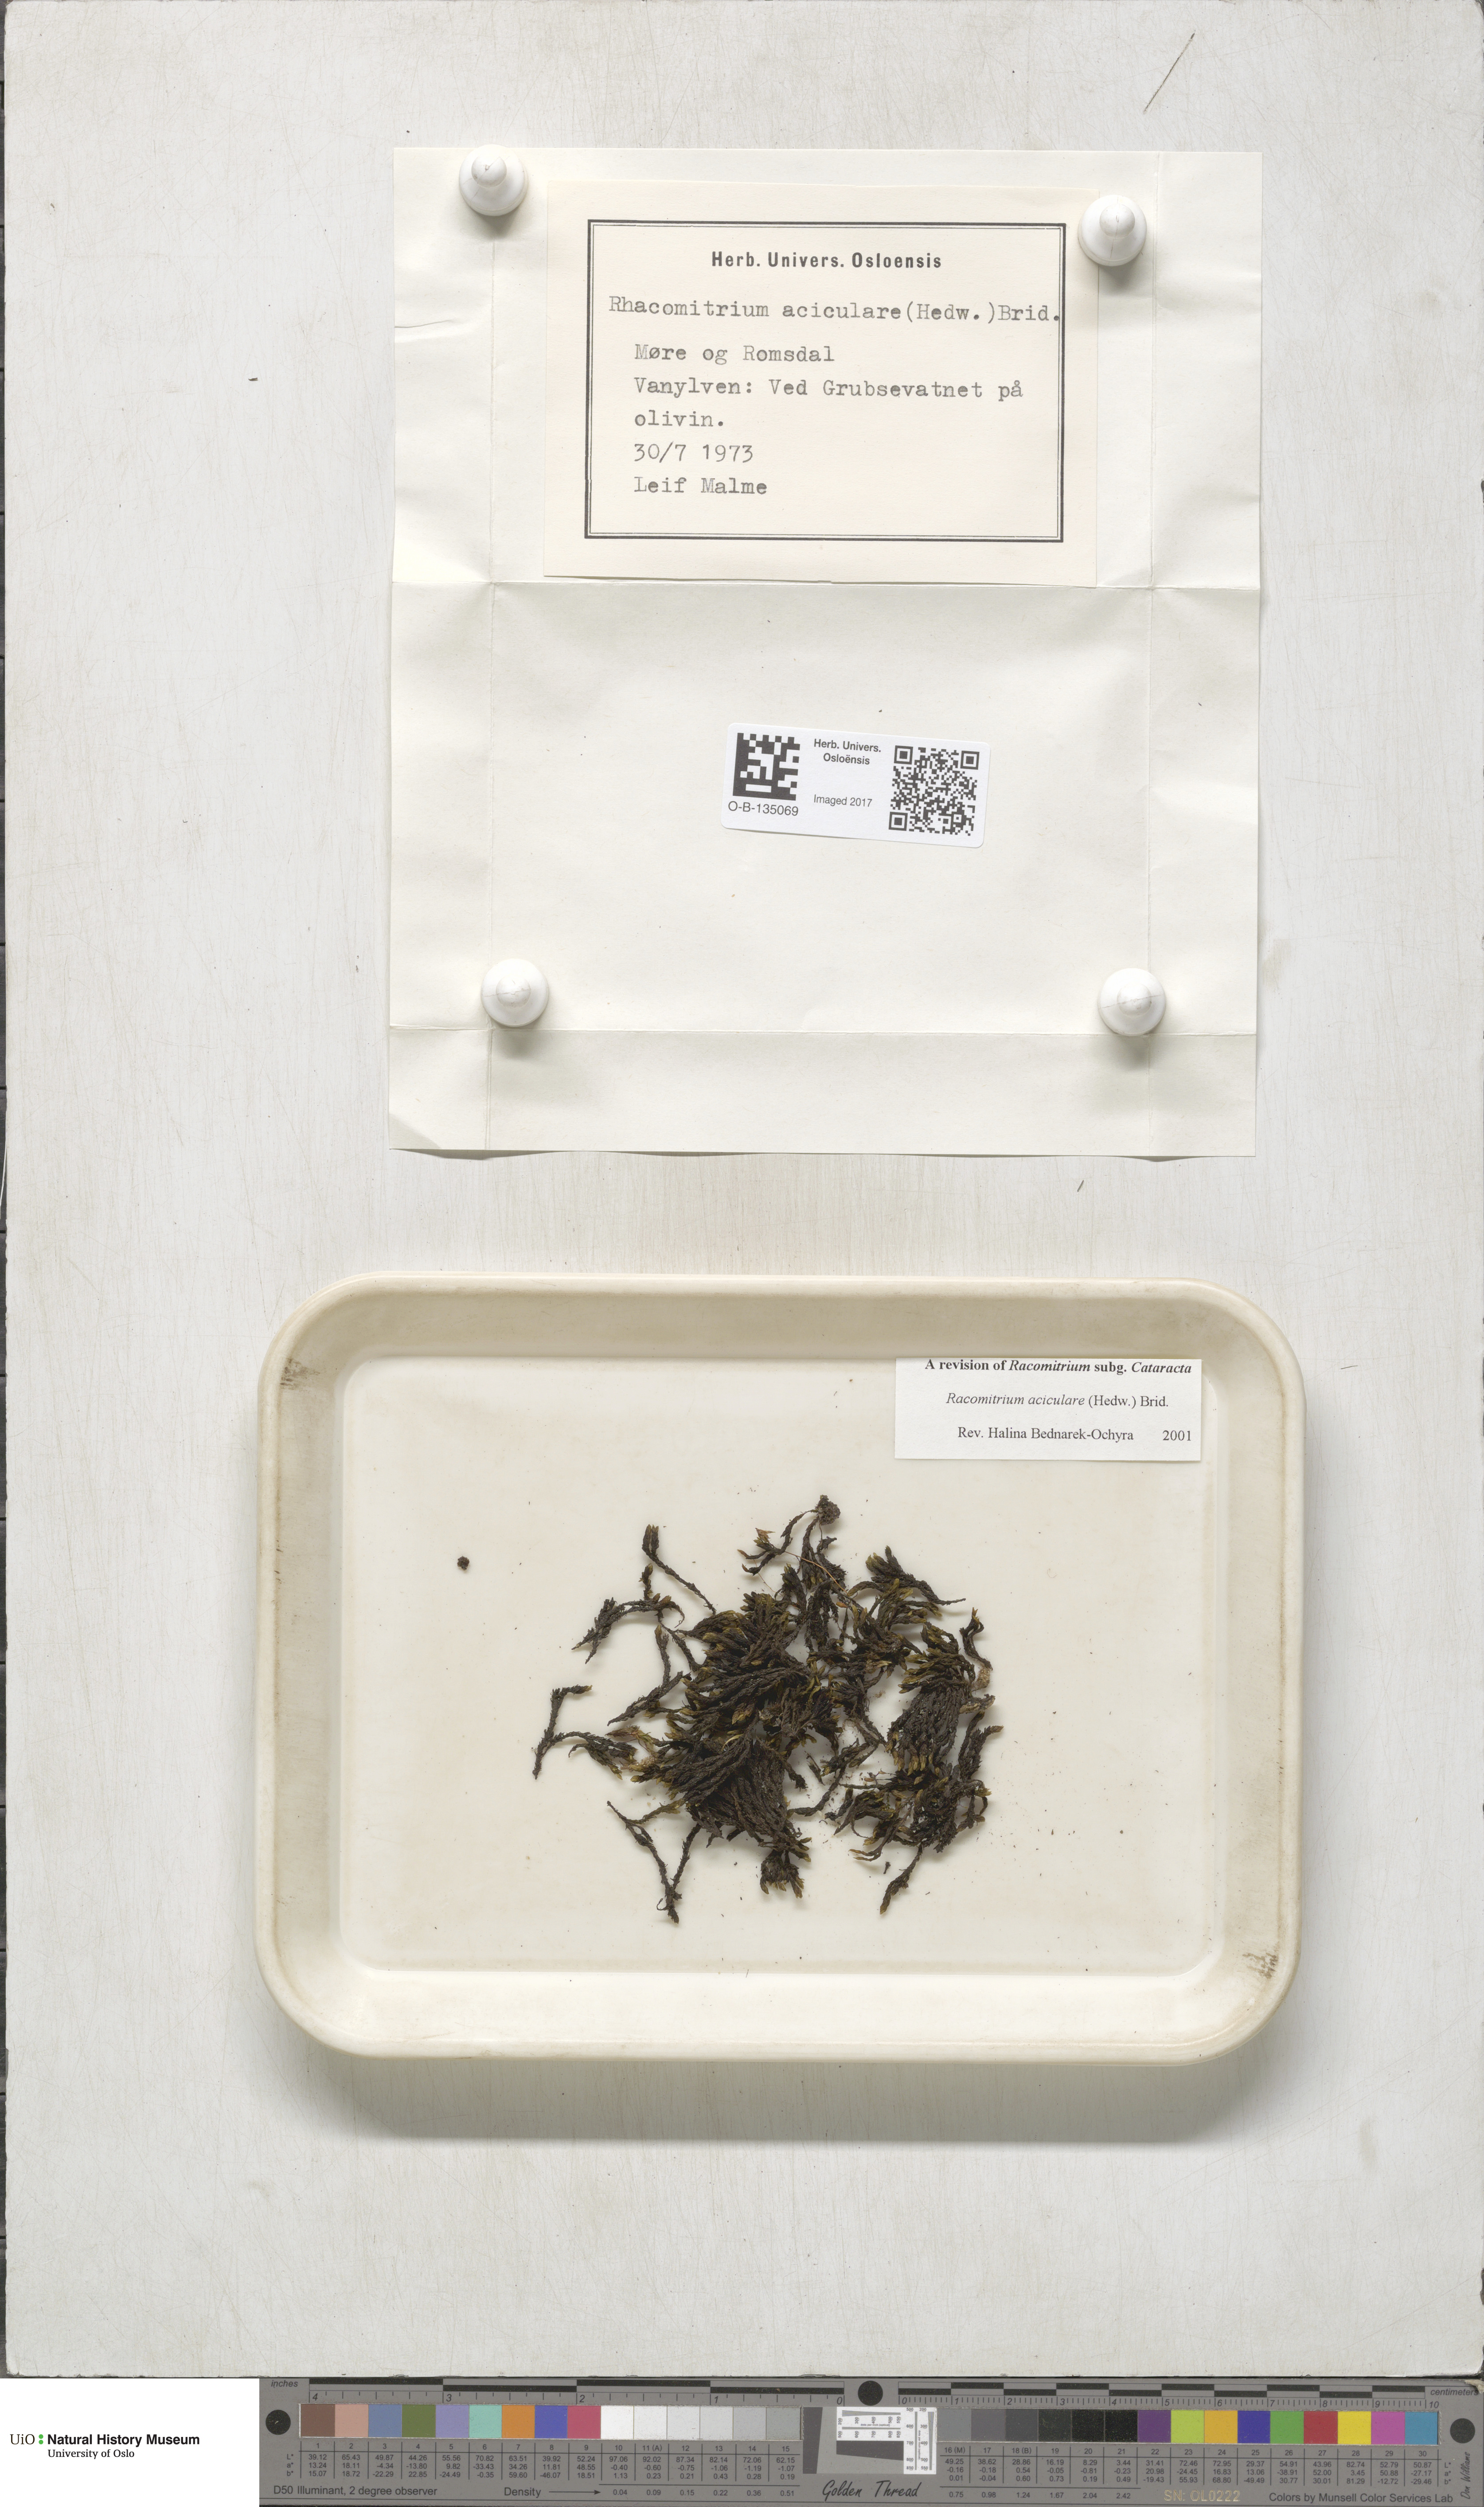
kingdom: Plantae
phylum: Bryophyta
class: Bryopsida
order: Grimmiales
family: Grimmiaceae
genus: Codriophorus
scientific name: Codriophorus acicularis
